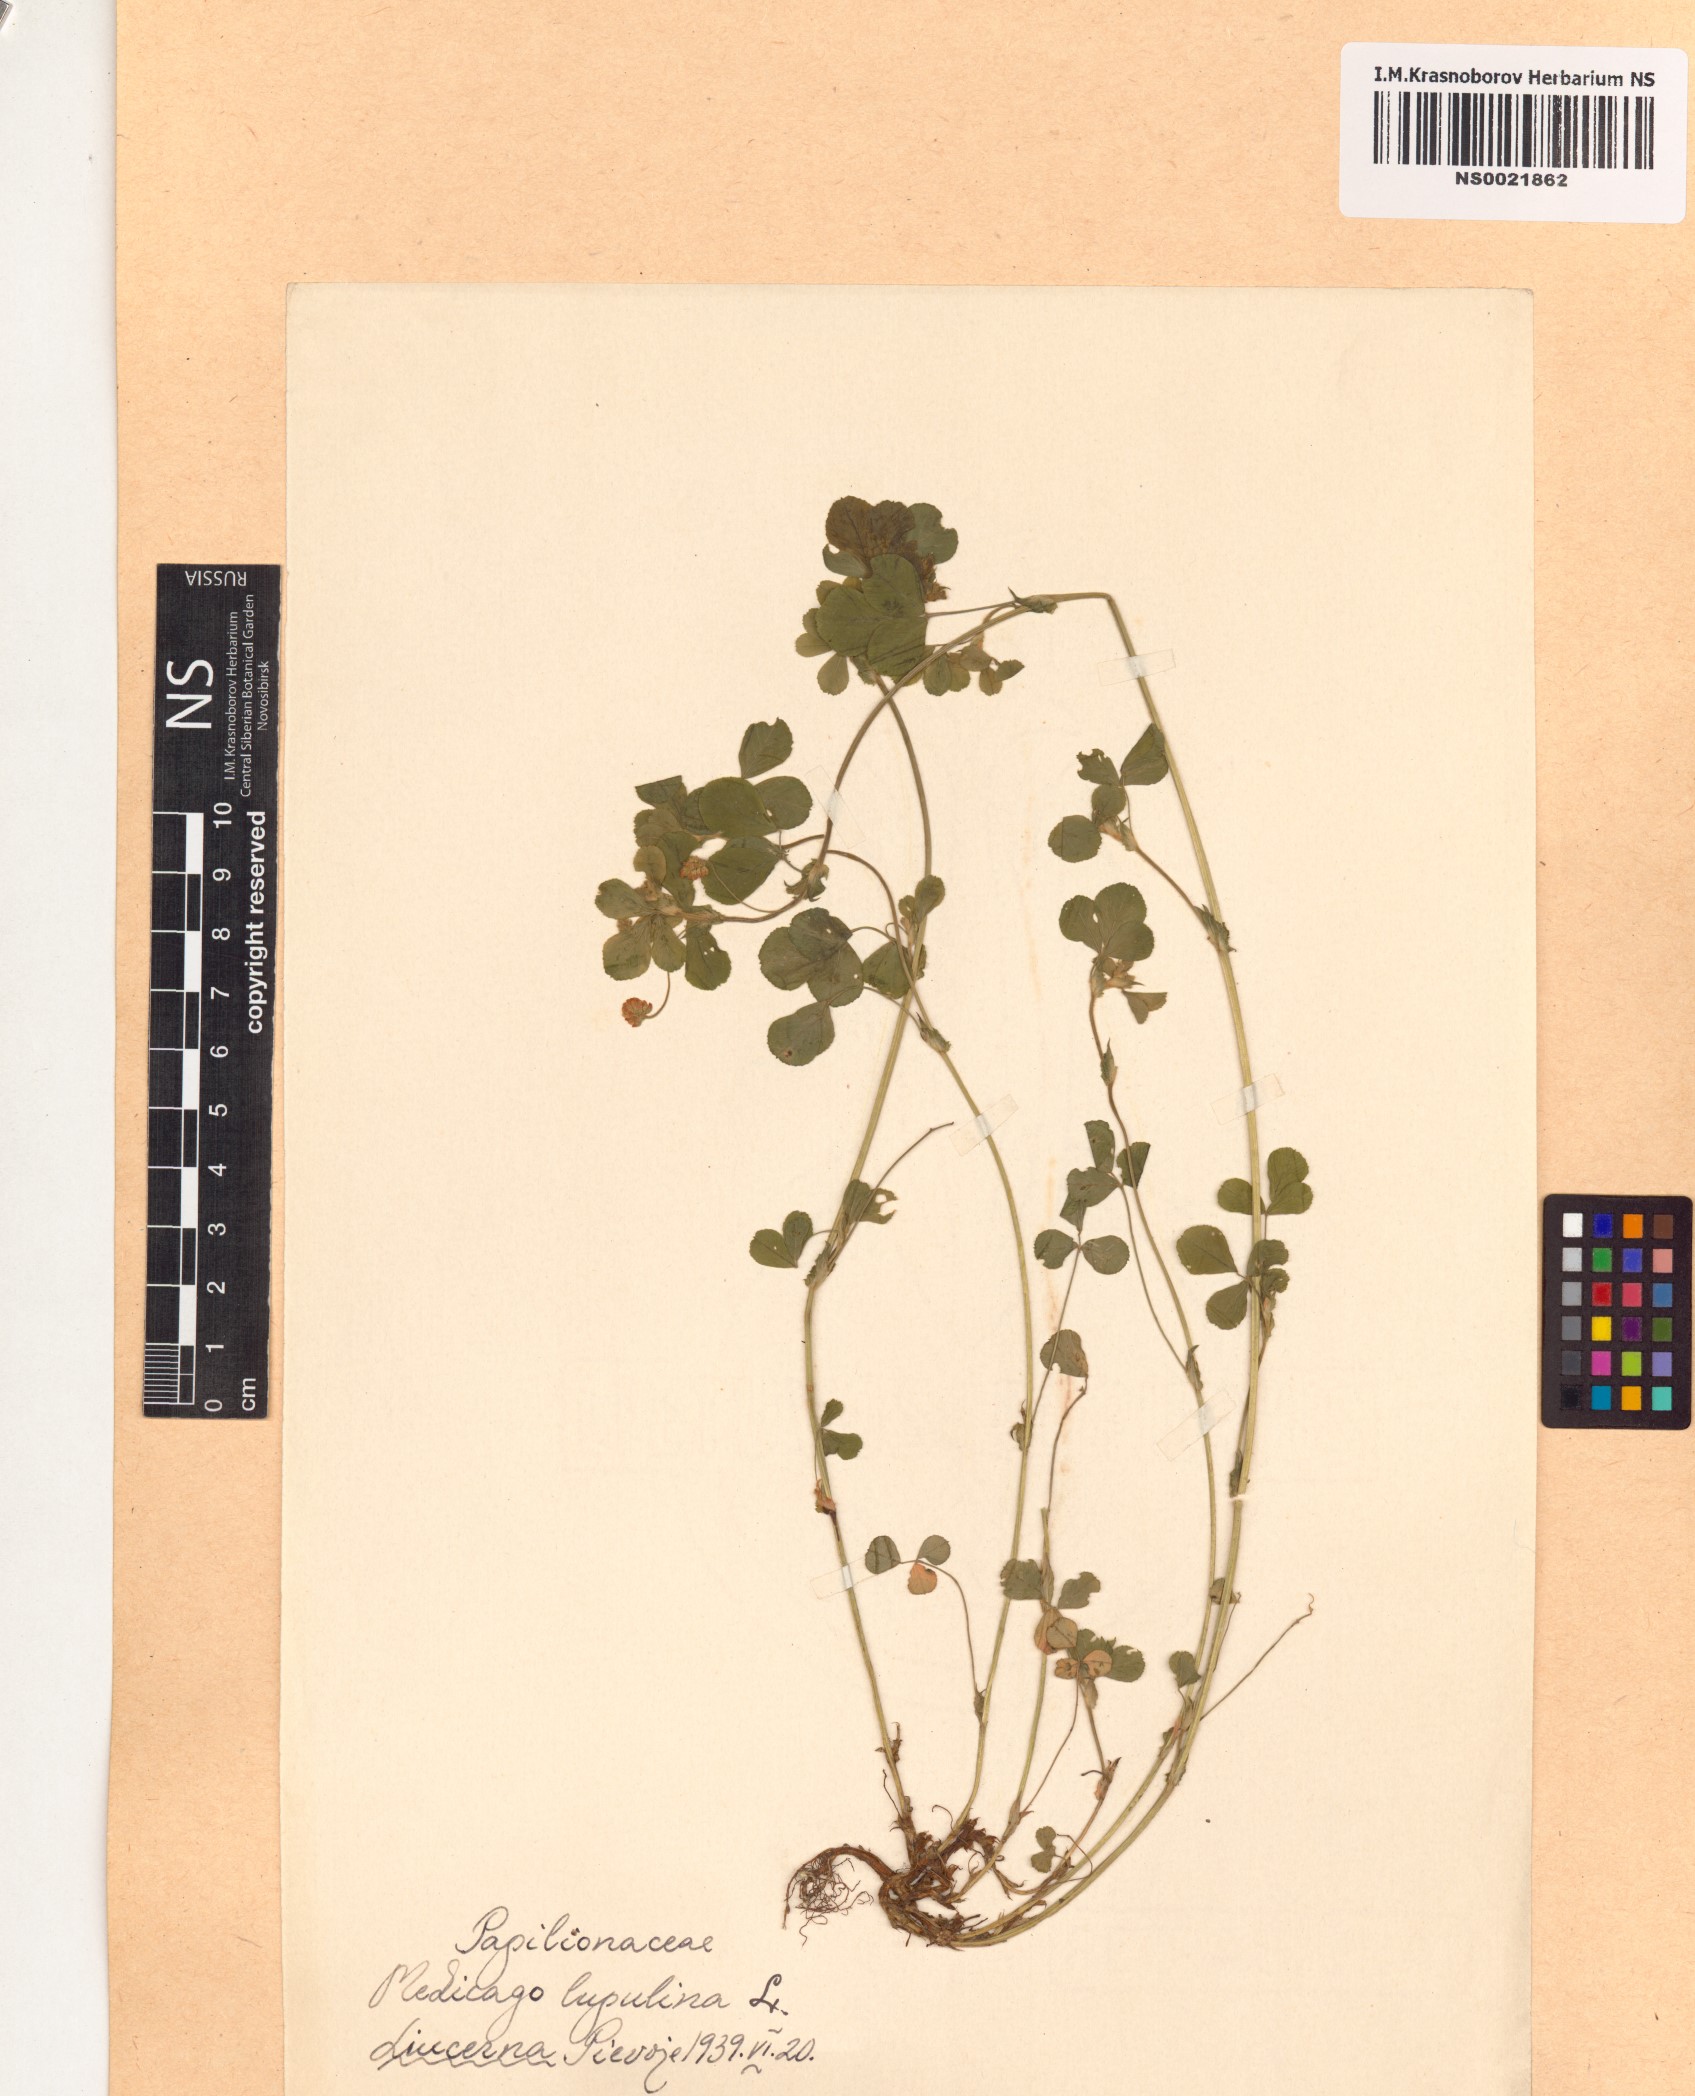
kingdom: Plantae
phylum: Tracheophyta
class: Magnoliopsida
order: Fabales
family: Fabaceae
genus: Medicago
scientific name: Medicago lupulina
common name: Black medick
